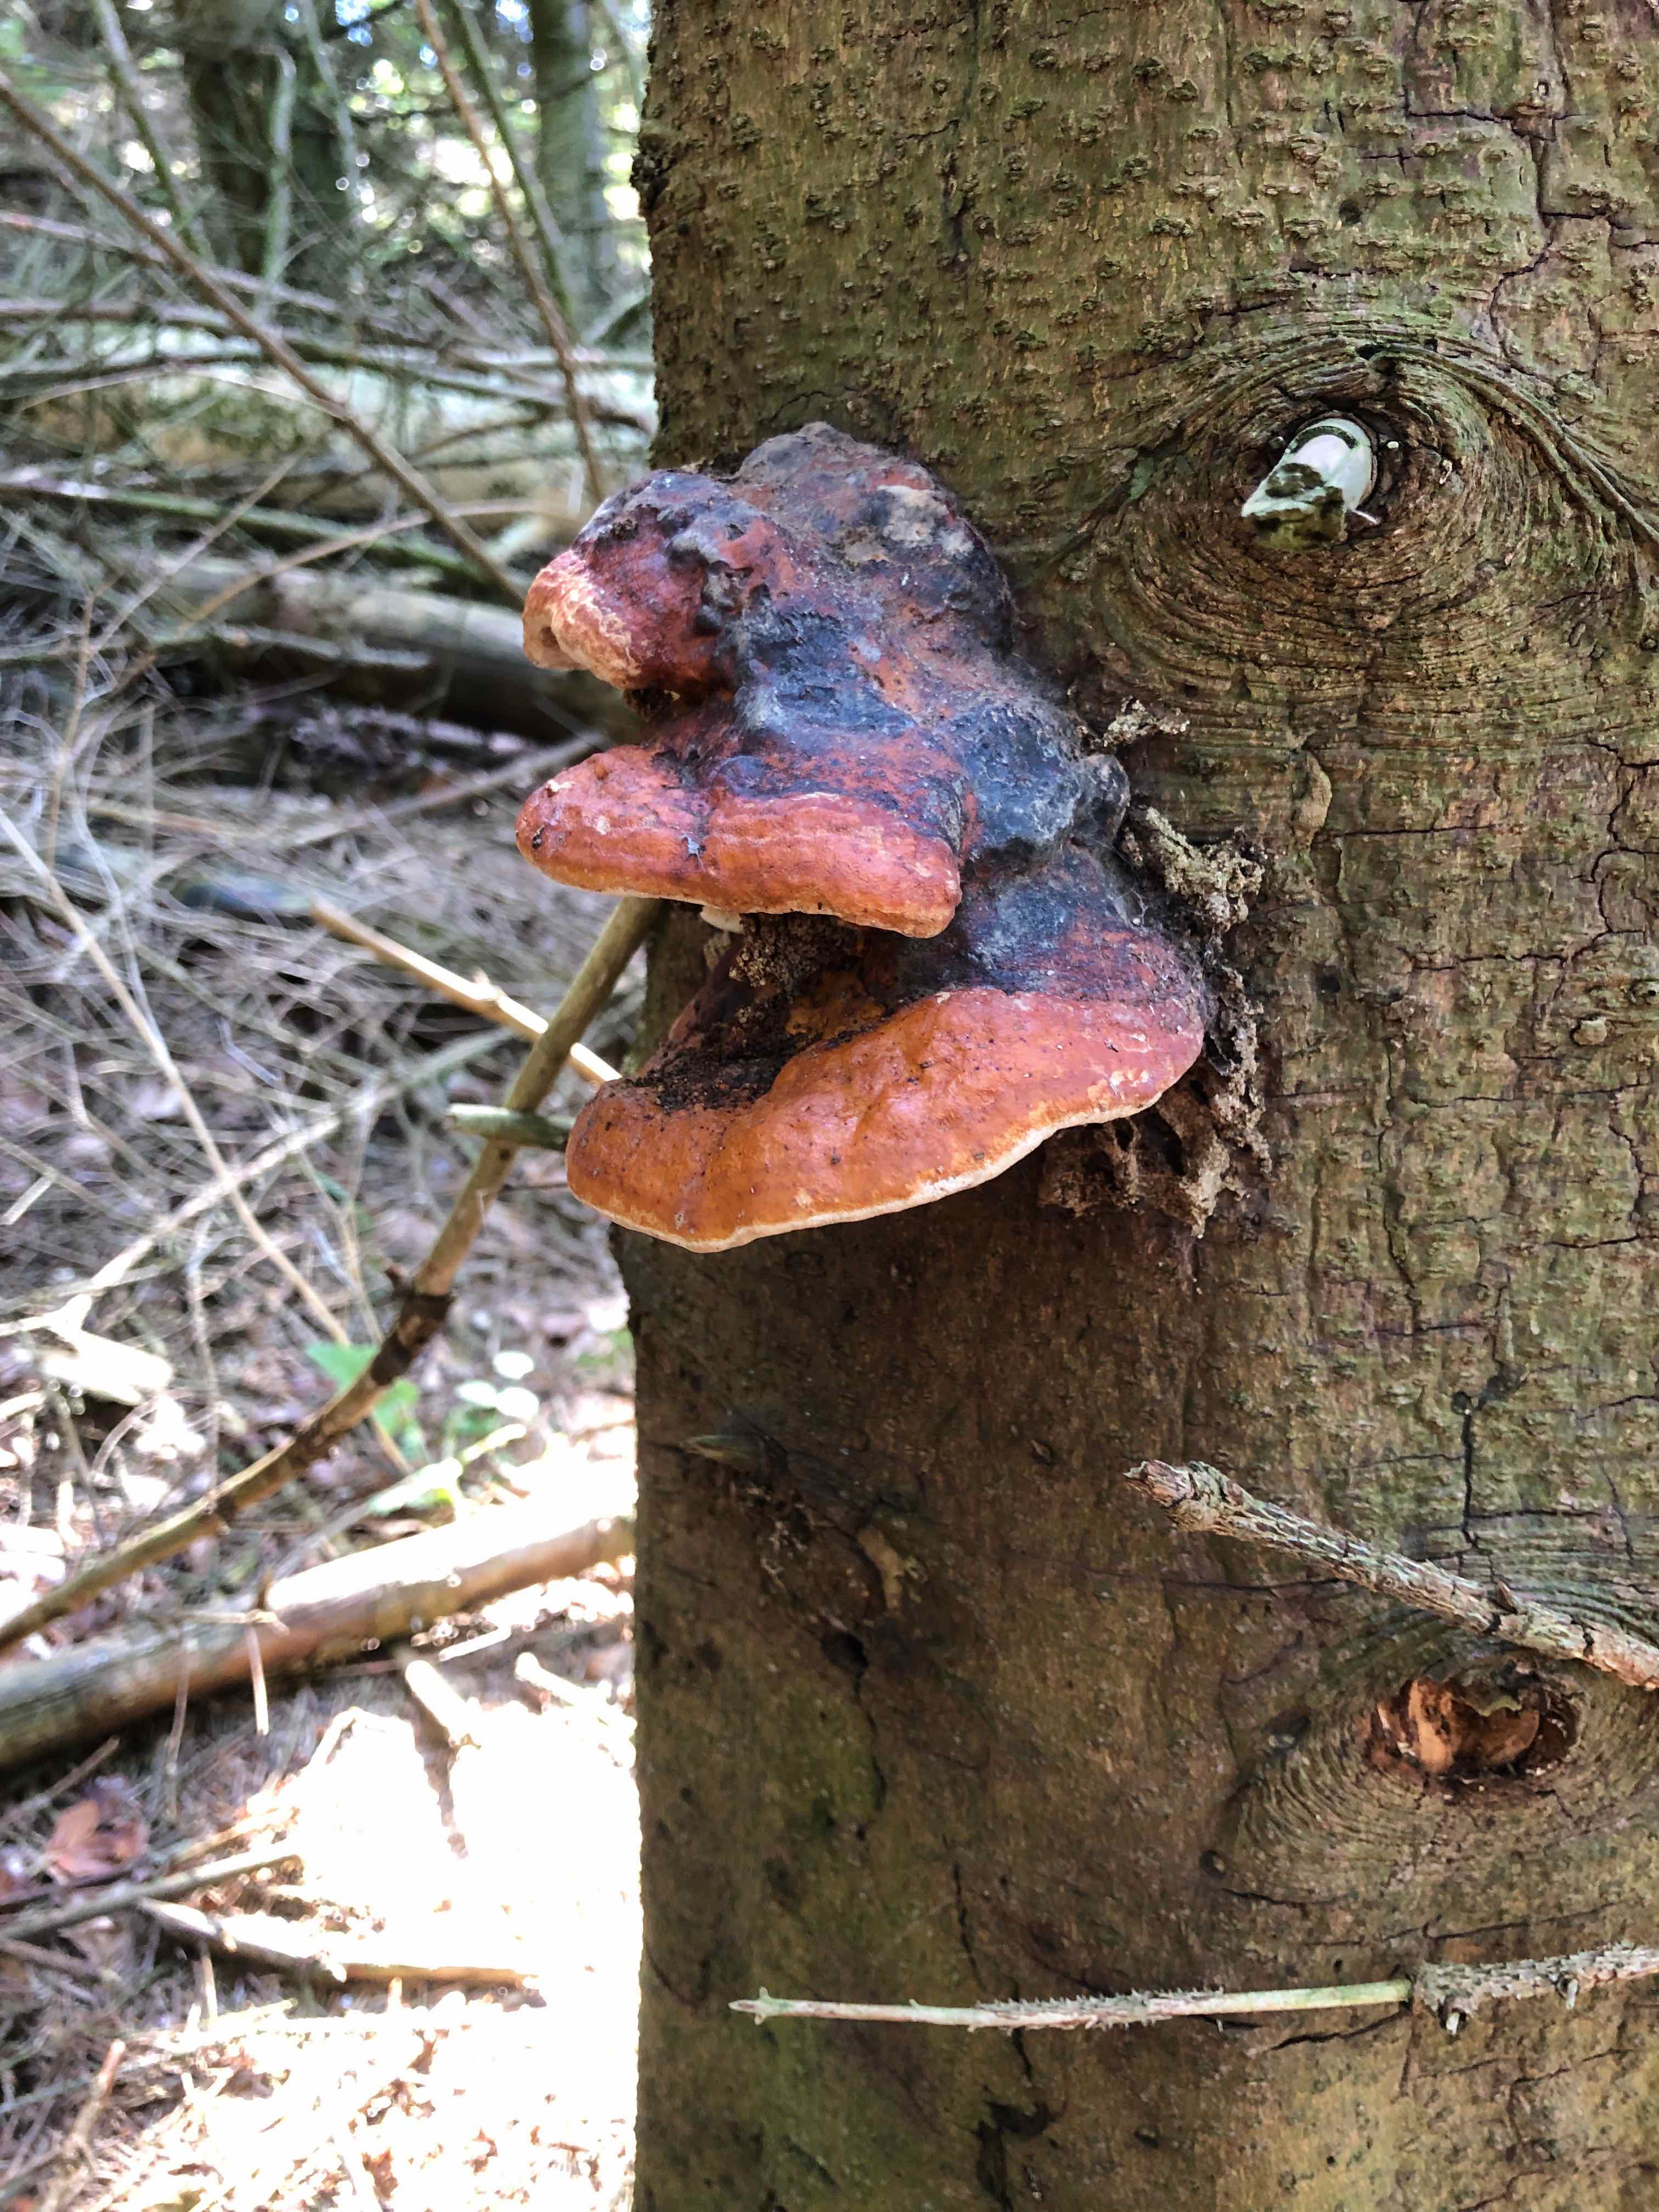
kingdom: Fungi
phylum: Basidiomycota
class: Agaricomycetes
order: Polyporales
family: Fomitopsidaceae
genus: Fomitopsis
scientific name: Fomitopsis pinicola
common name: randbæltet hovporesvamp
